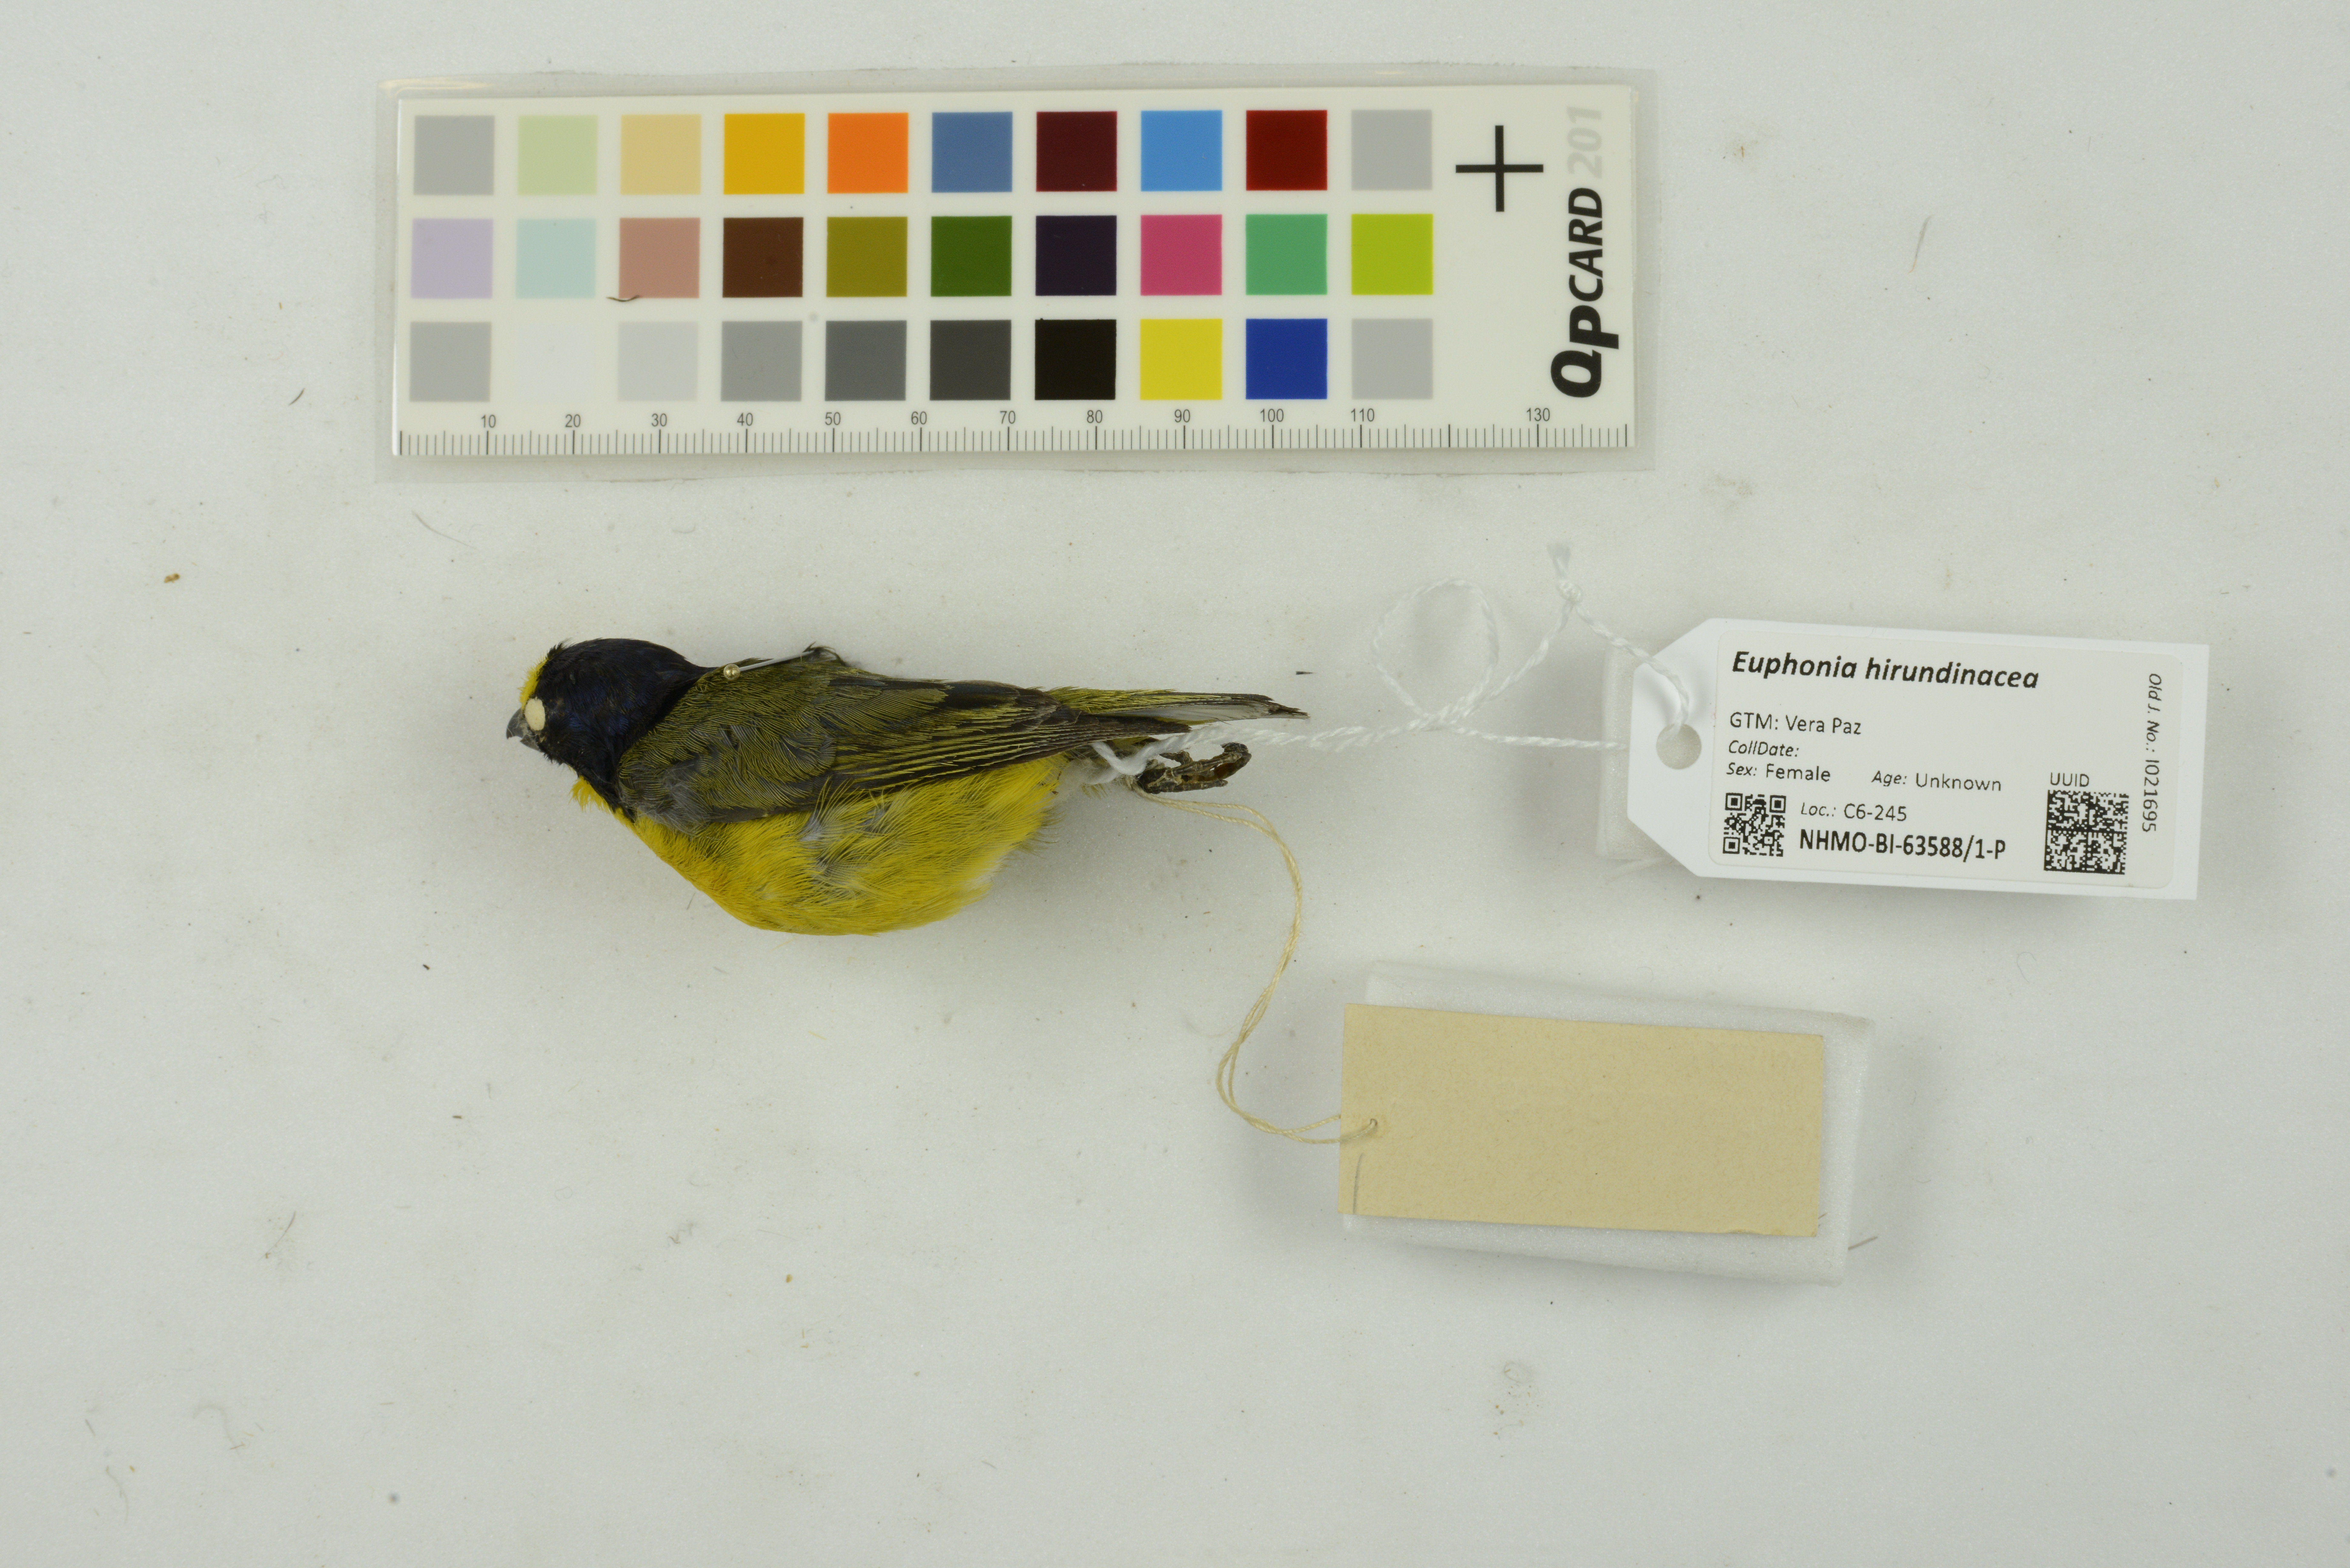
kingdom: Animalia
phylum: Chordata
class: Aves
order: Passeriformes
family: Fringillidae
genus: Euphonia
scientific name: Euphonia hirundinacea
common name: Yellow-throated euphonia
